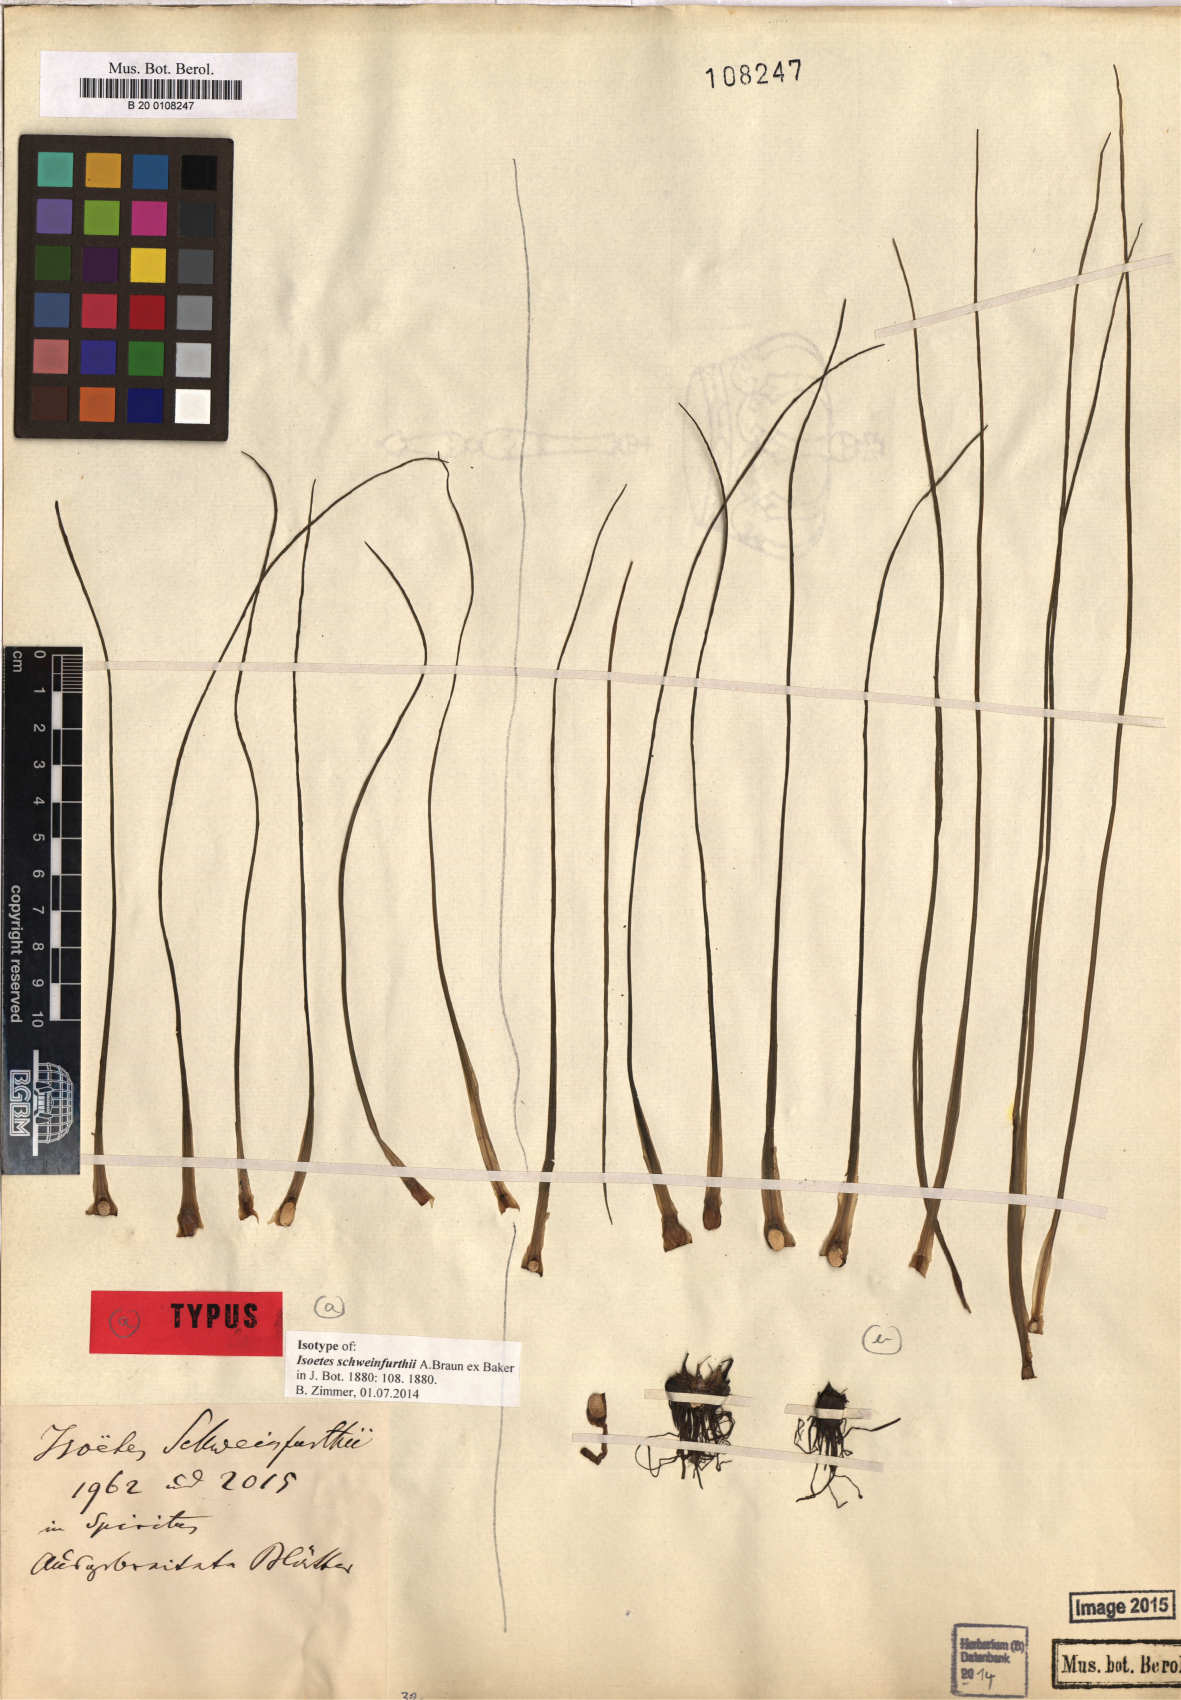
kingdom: Plantae
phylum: Tracheophyta
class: Lycopodiopsida
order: Isoetales
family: Isoetaceae
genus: Isoetes
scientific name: Isoetes schweinfurthii
